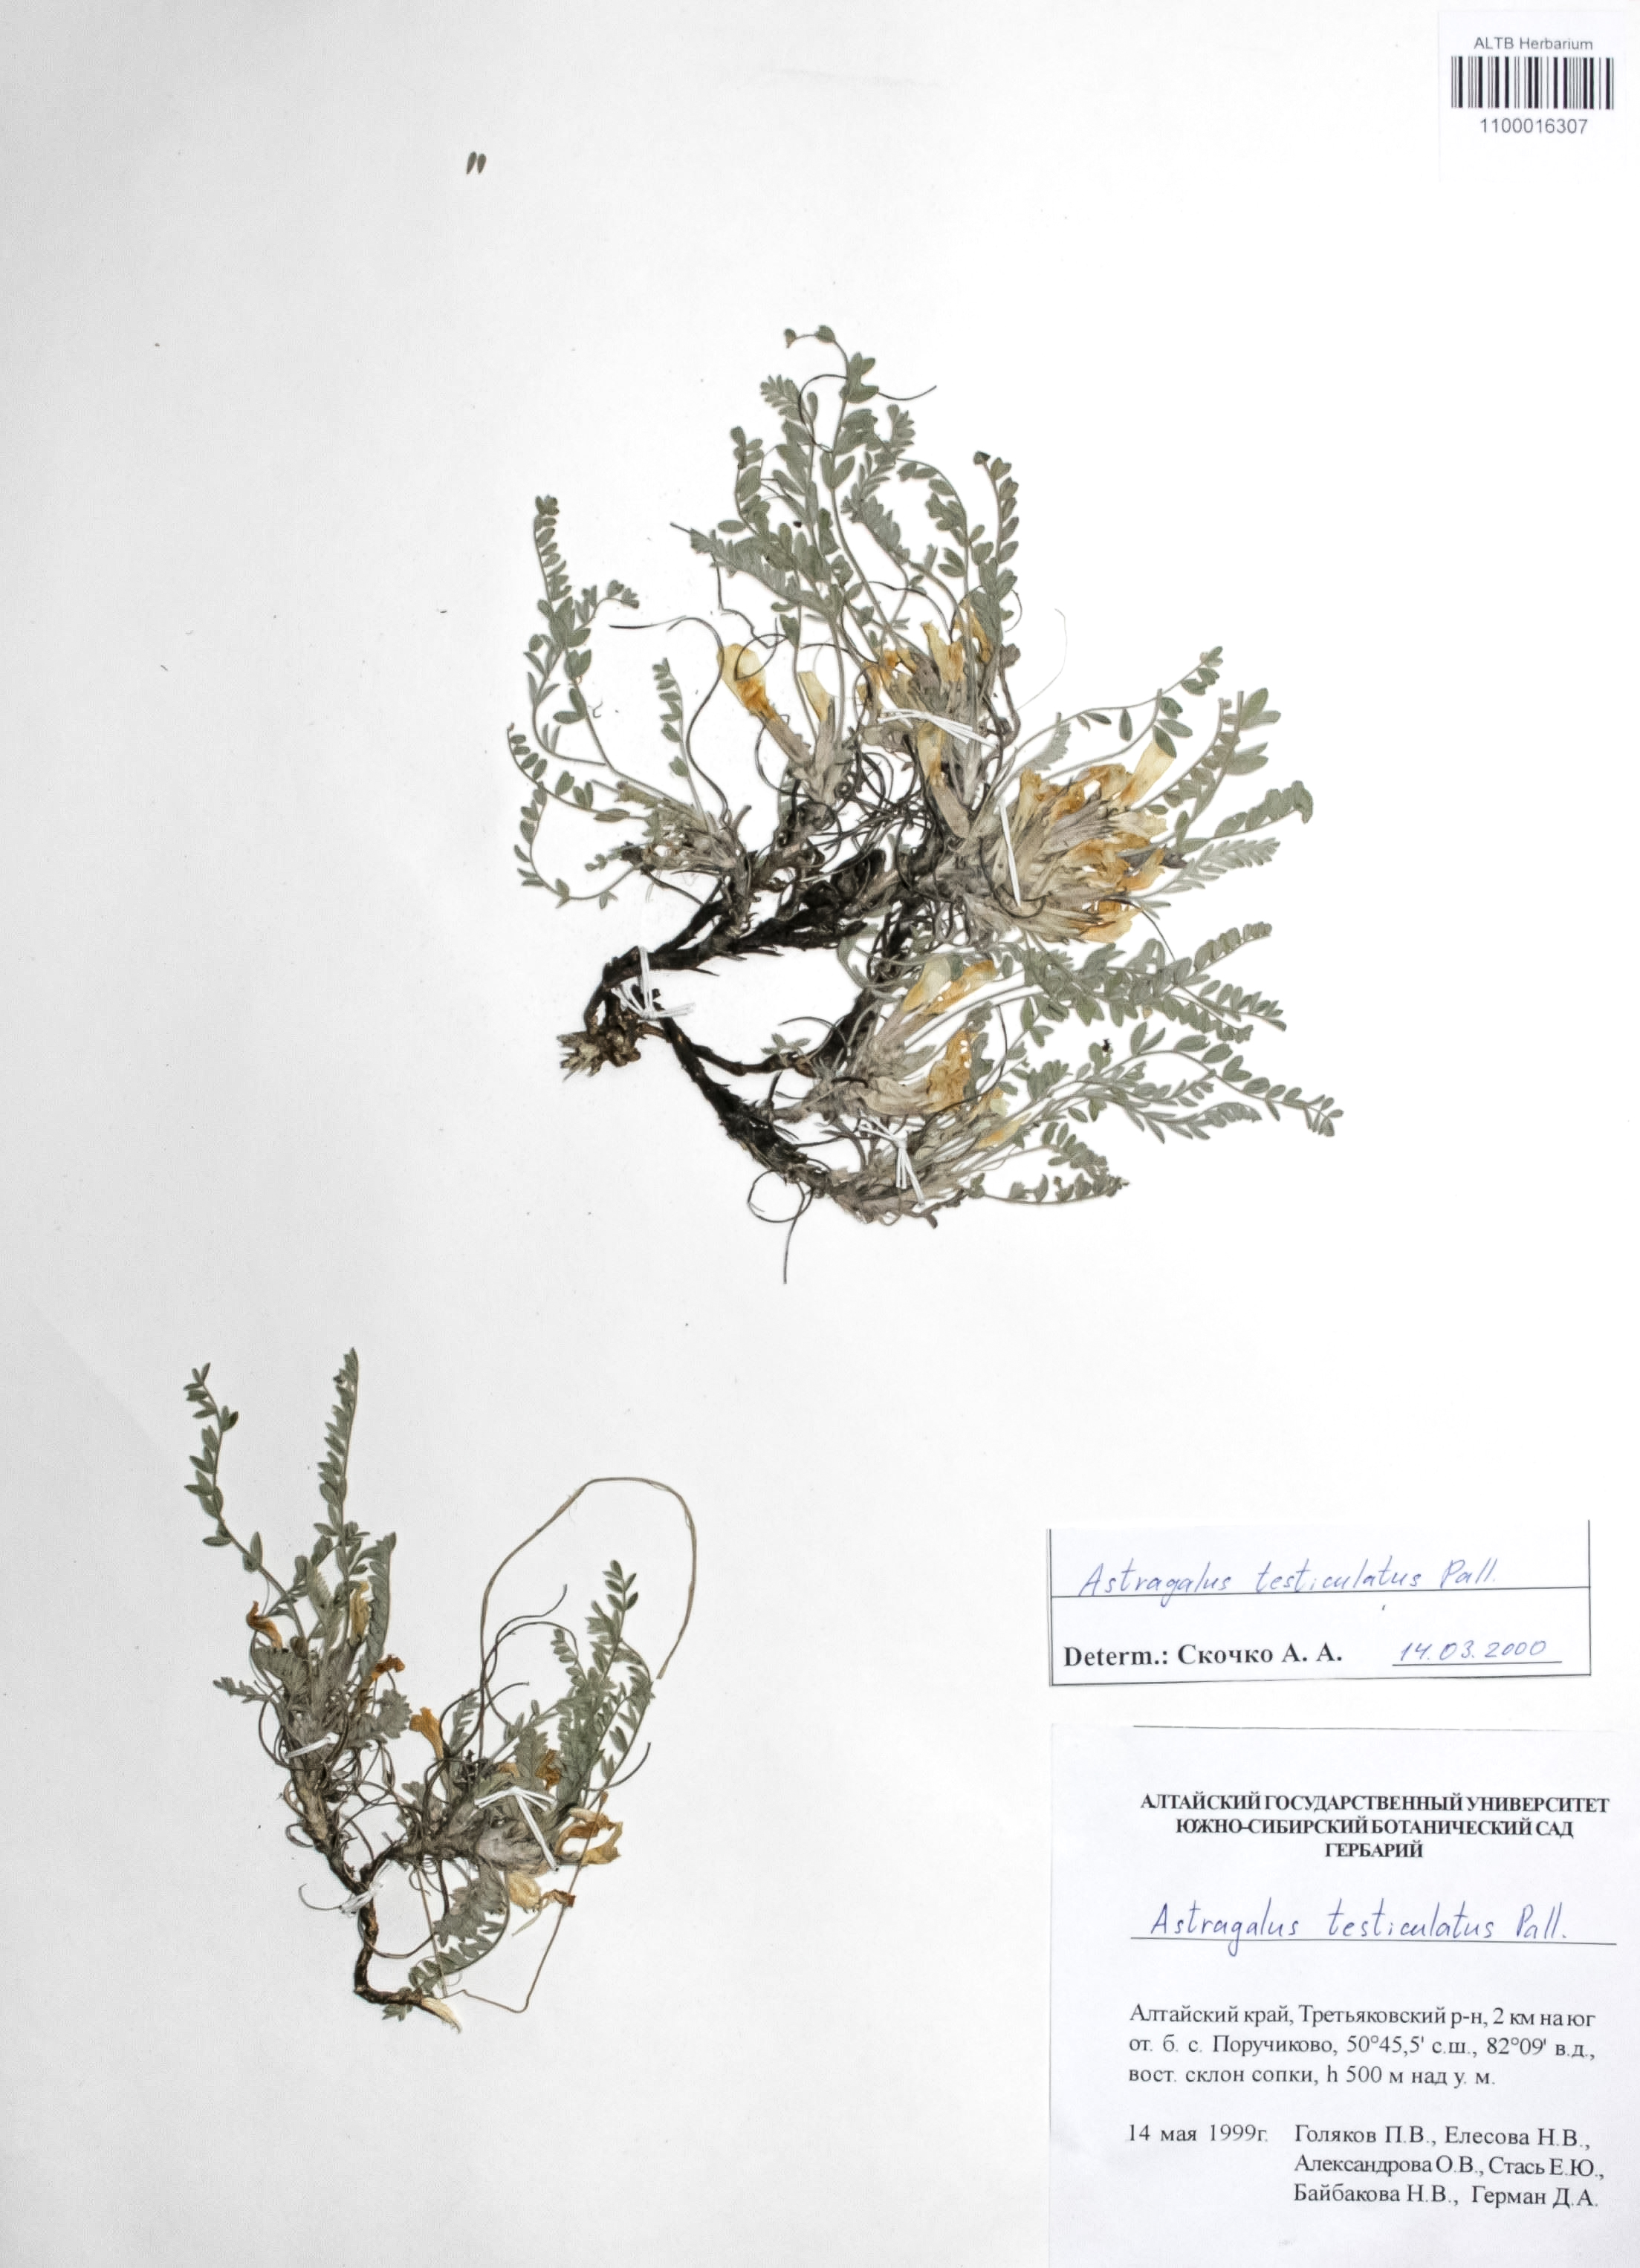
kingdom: Plantae
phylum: Tracheophyta
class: Magnoliopsida
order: Fabales
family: Fabaceae
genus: Astragalus
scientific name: Astragalus testiculatus
